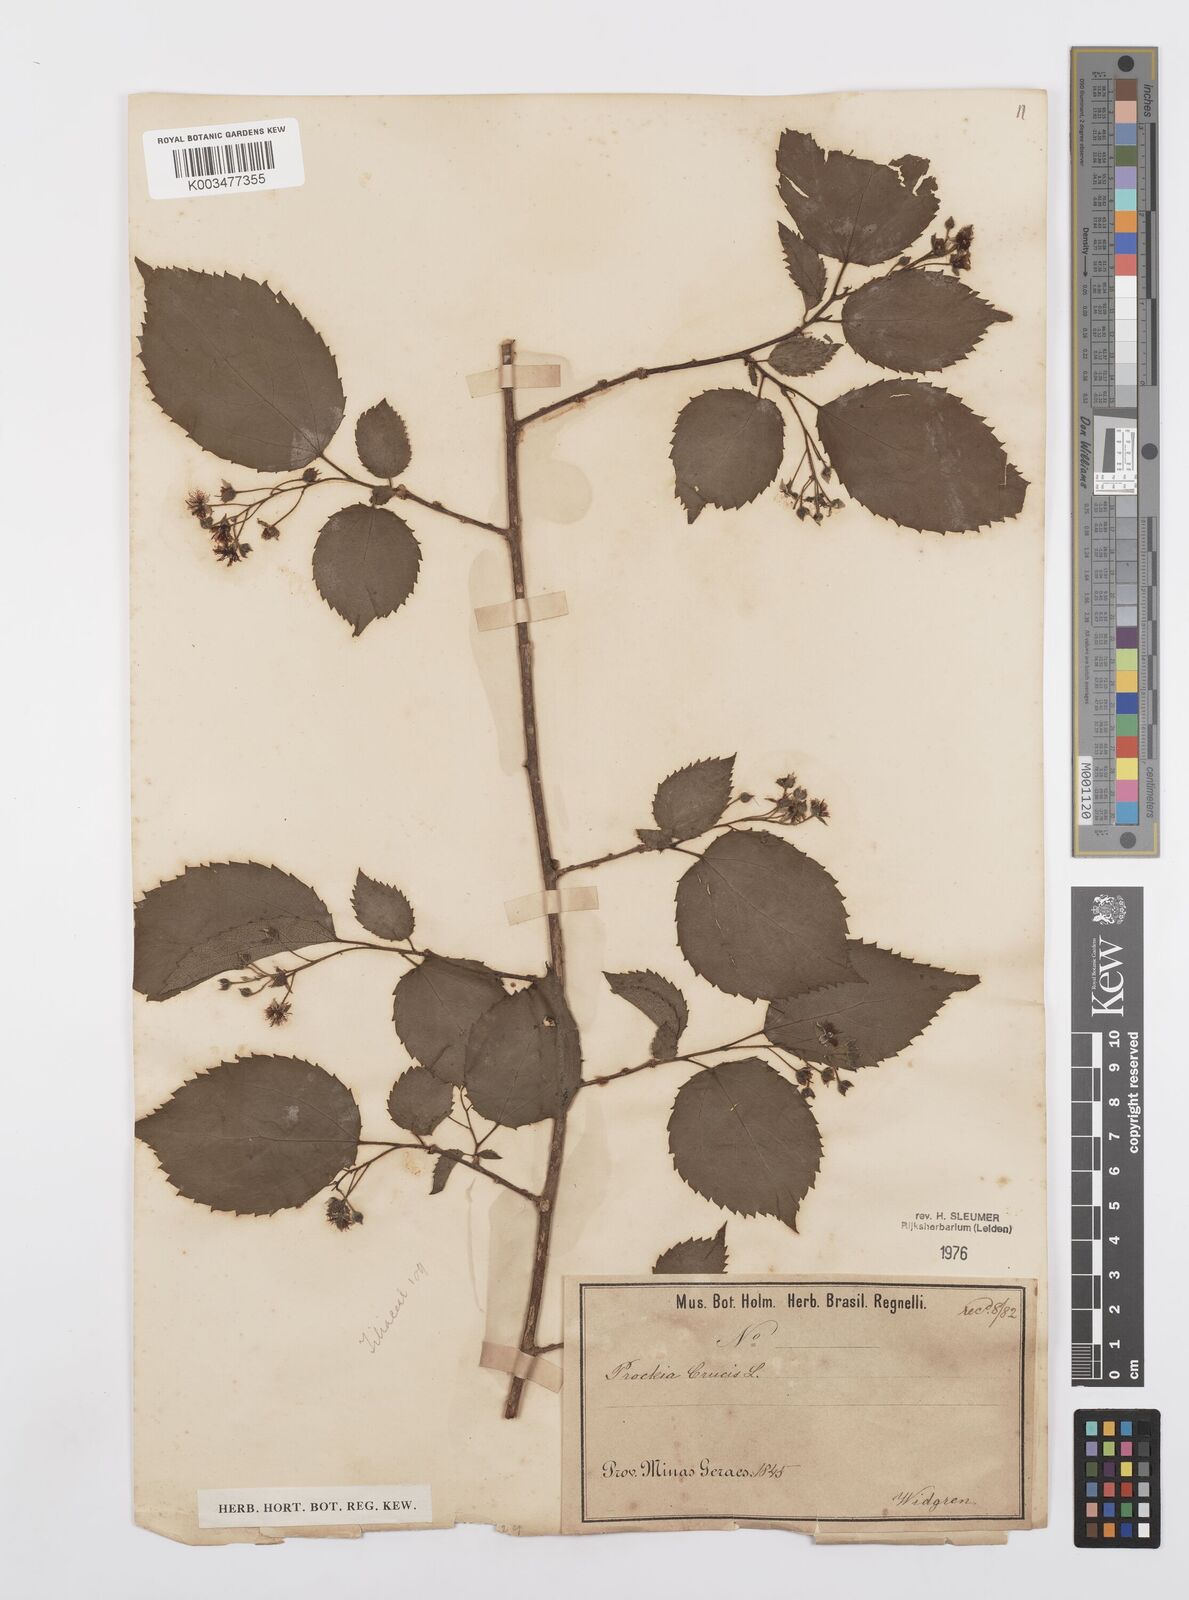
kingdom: Plantae
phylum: Tracheophyta
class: Magnoliopsida
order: Malpighiales
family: Salicaceae
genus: Prockia
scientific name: Prockia crucis
